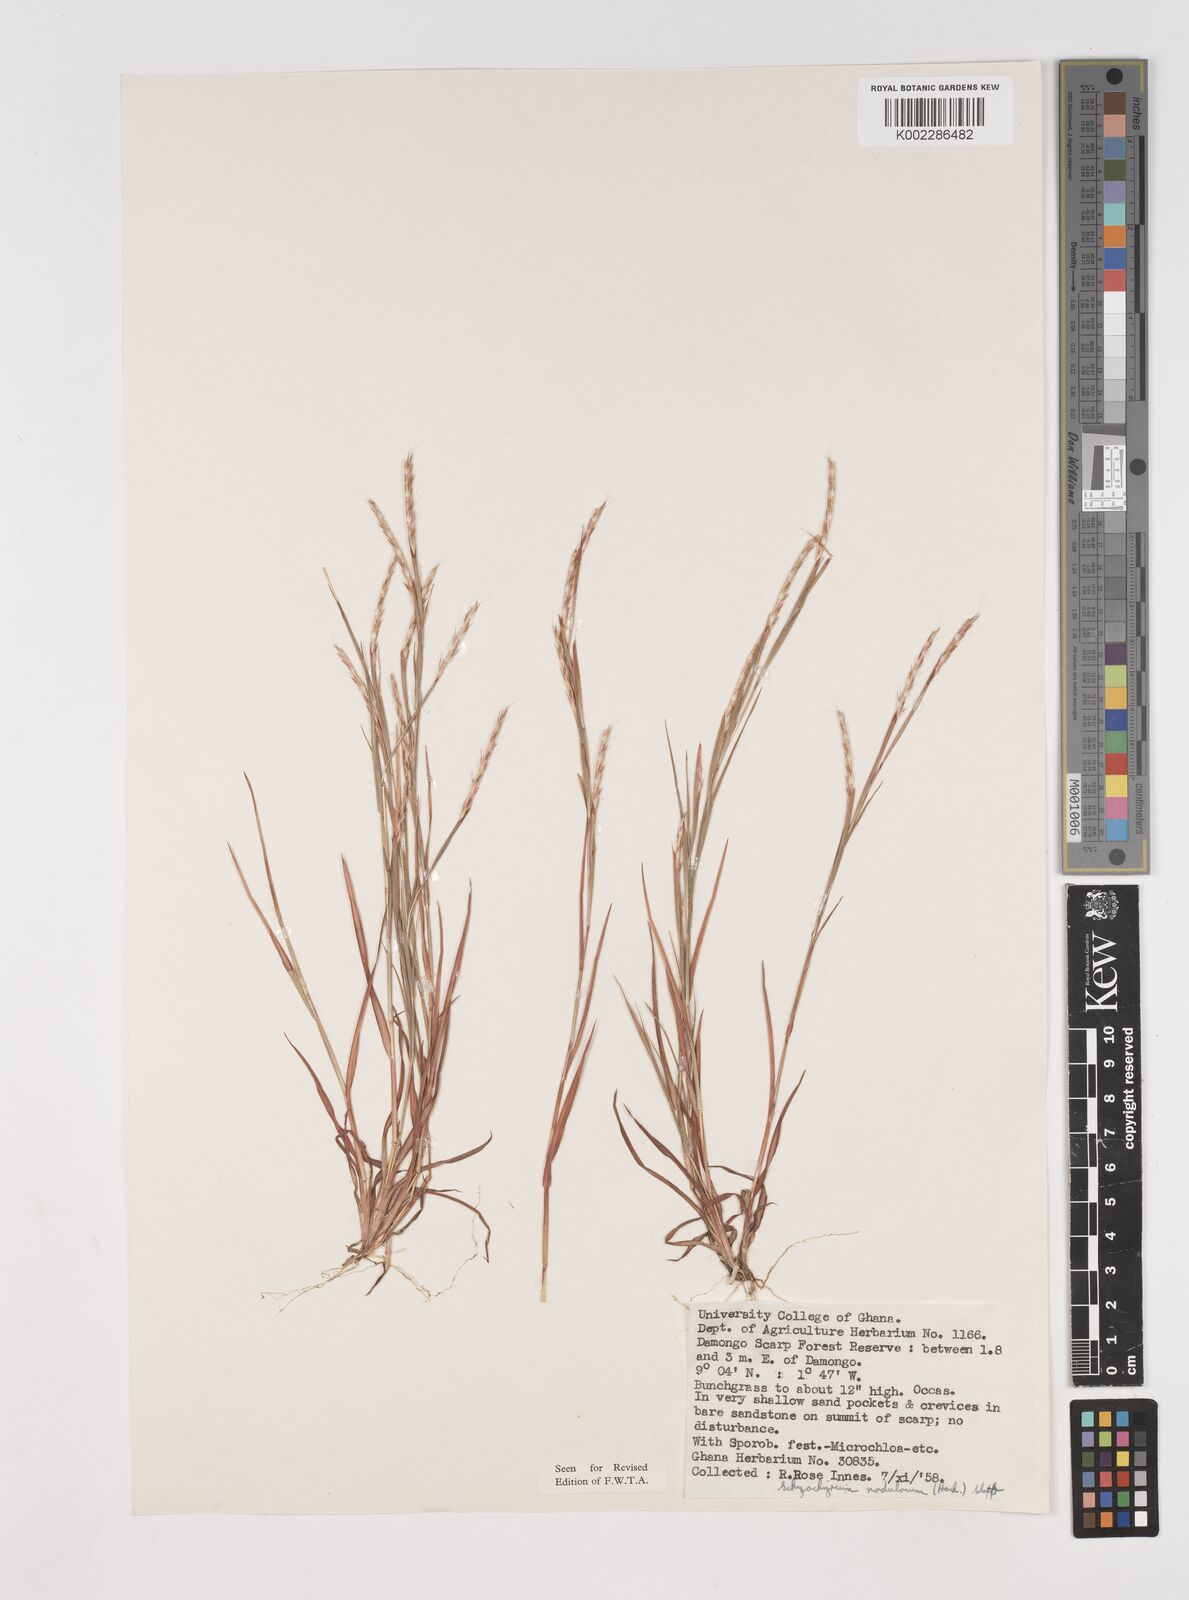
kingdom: Plantae
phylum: Tracheophyta
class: Liliopsida
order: Poales
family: Poaceae
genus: Schizachyrium
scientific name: Schizachyrium nodulosum
